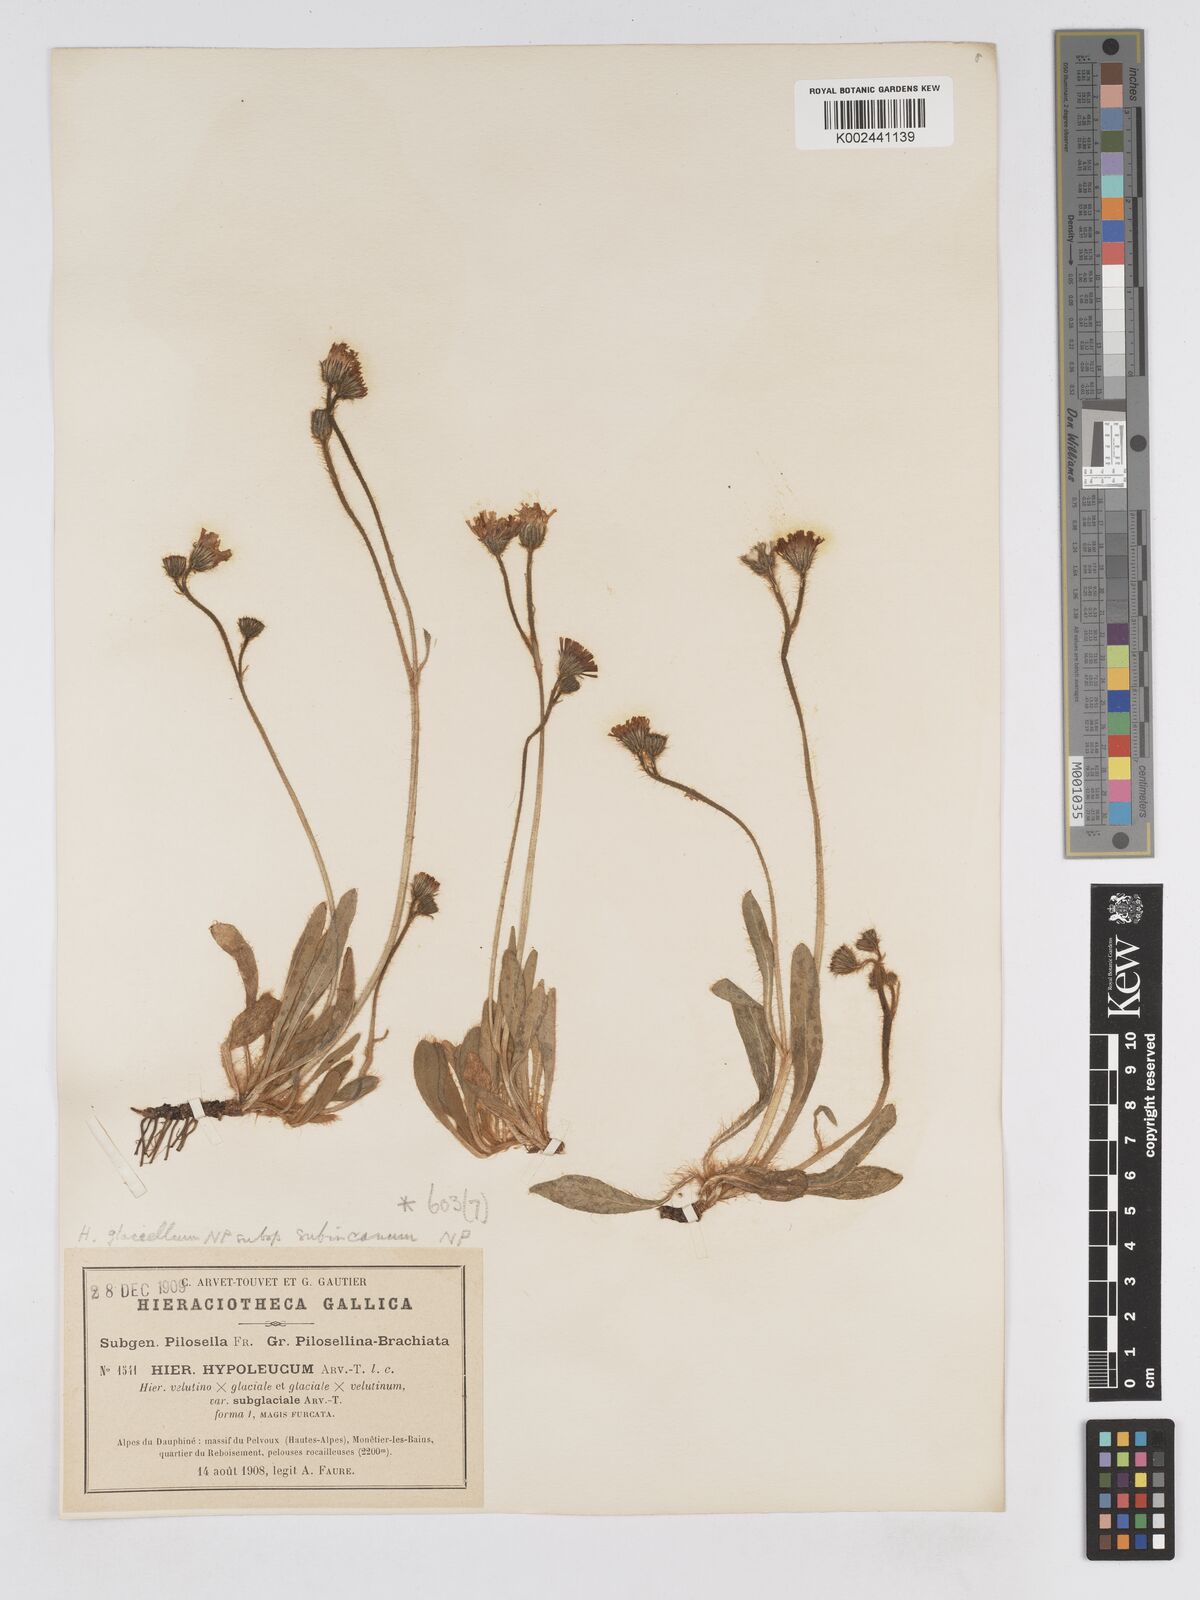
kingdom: Plantae
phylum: Tracheophyta
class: Magnoliopsida
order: Asterales
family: Asteraceae
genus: Pilosella
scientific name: Pilosella hypoleuca
